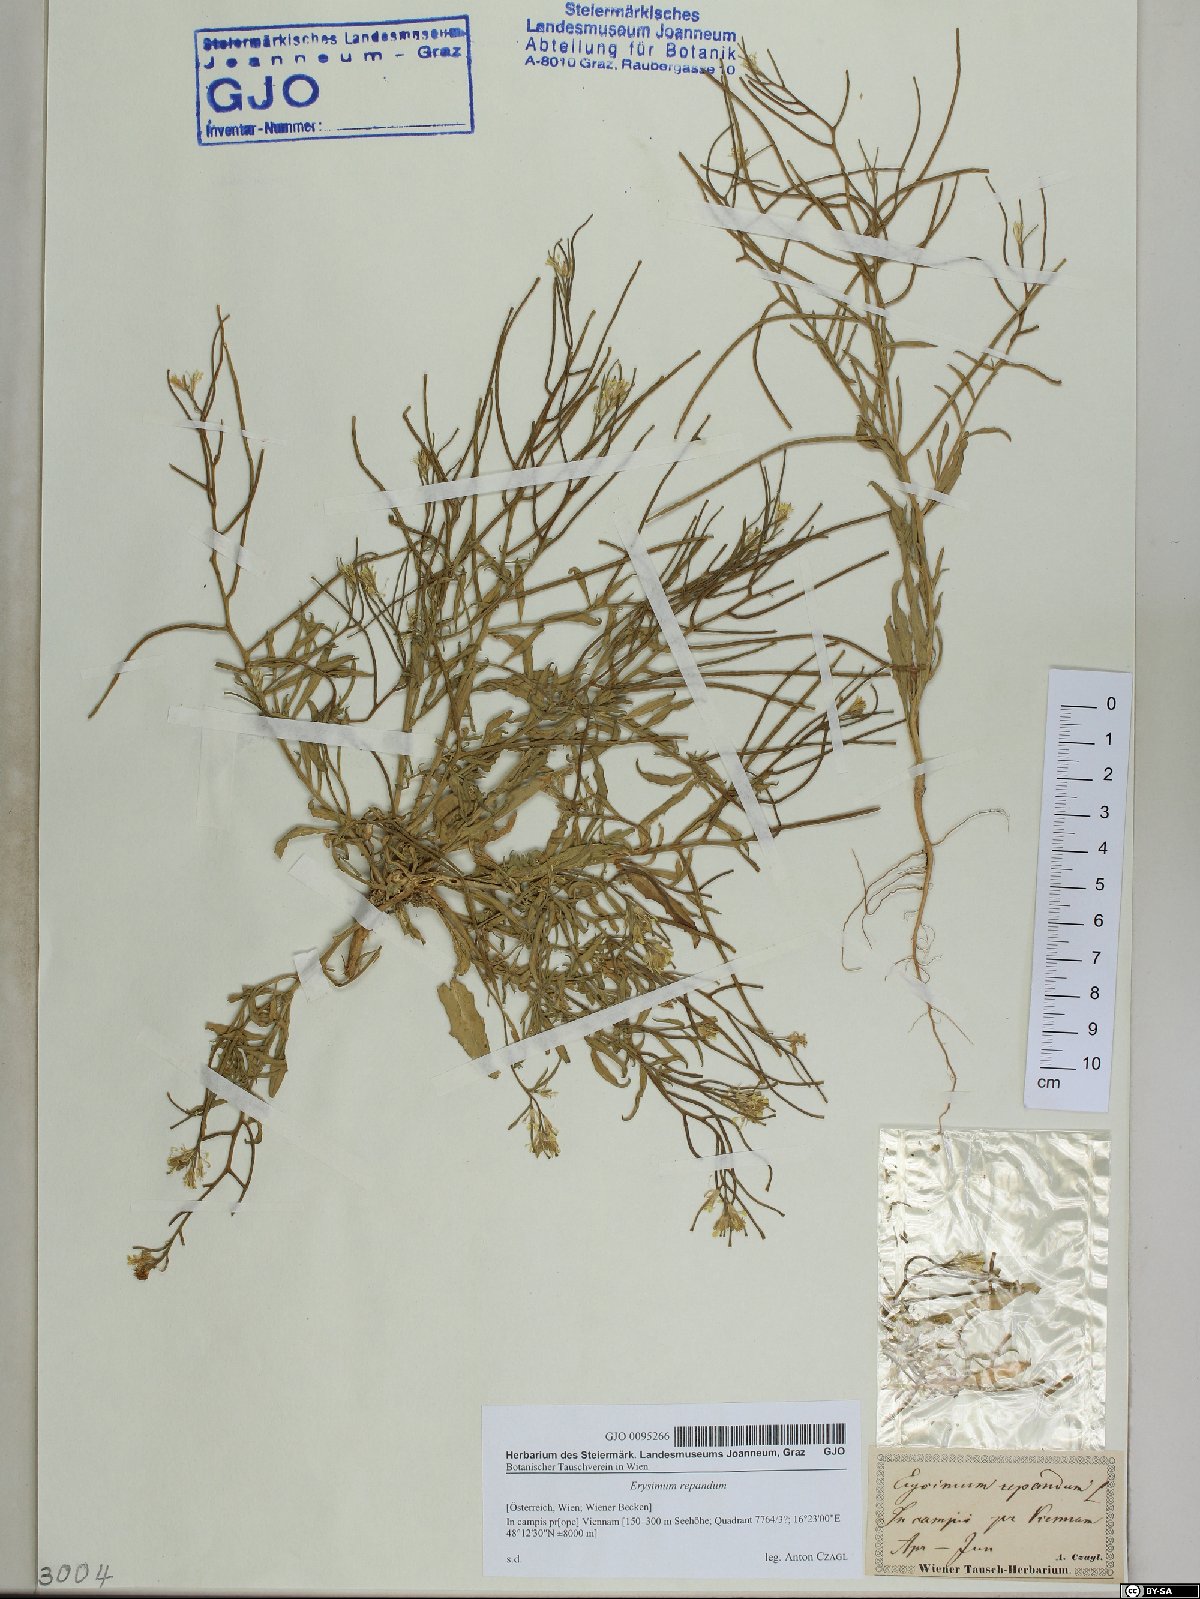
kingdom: Plantae
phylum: Tracheophyta
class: Magnoliopsida
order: Brassicales
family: Brassicaceae
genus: Erysimum
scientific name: Erysimum repandum
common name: Spreading wallflower
